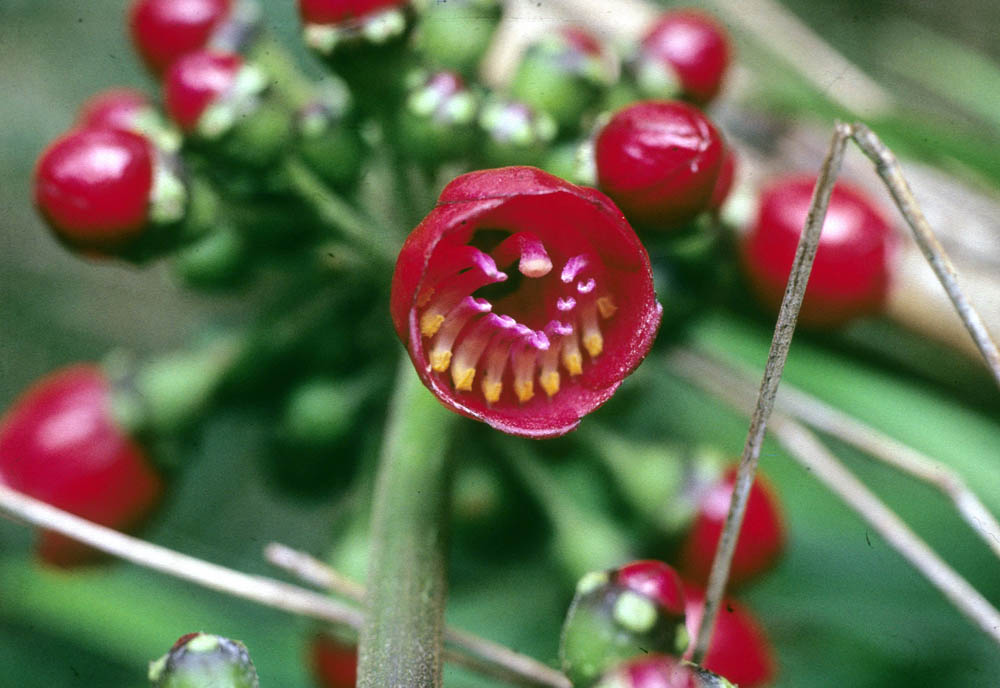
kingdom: Plantae
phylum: Tracheophyta
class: Magnoliopsida
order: Myrtales
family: Melastomataceae
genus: Miconia
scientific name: Miconia tetragona
